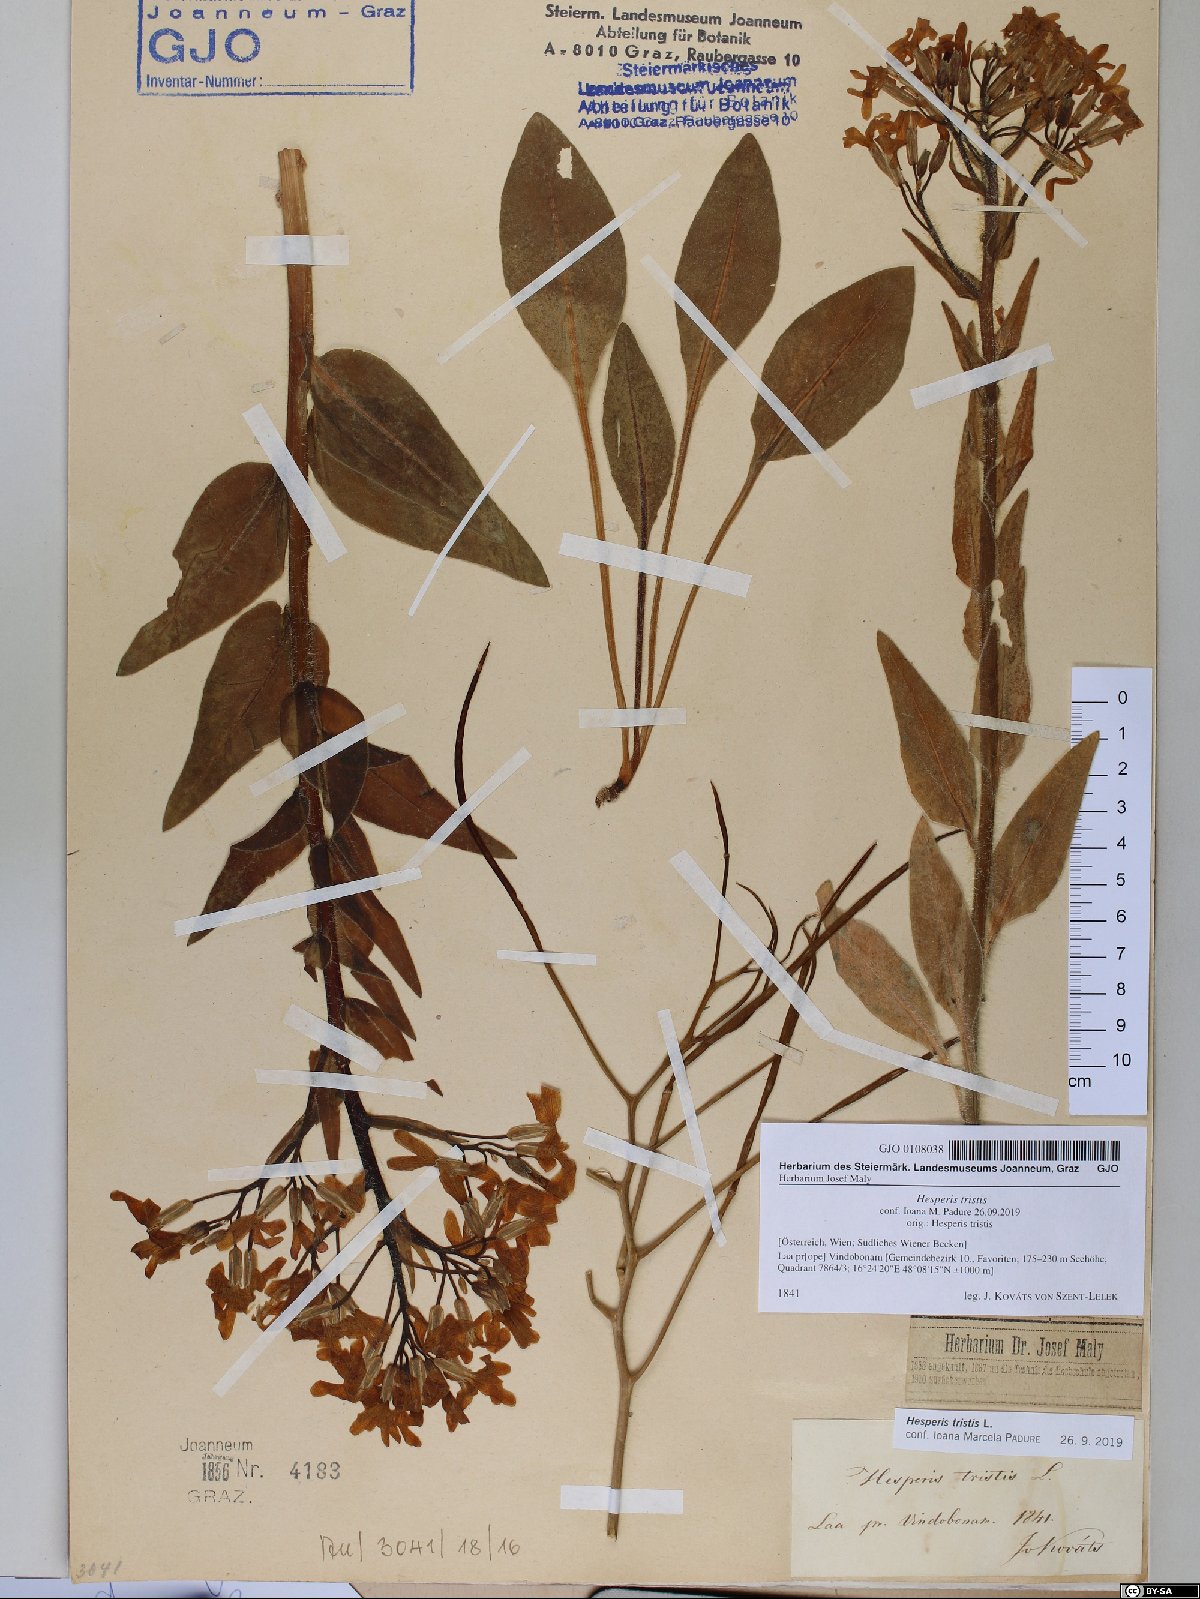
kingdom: Plantae
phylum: Tracheophyta
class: Magnoliopsida
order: Brassicales
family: Brassicaceae
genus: Hesperis
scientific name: Hesperis tristis
